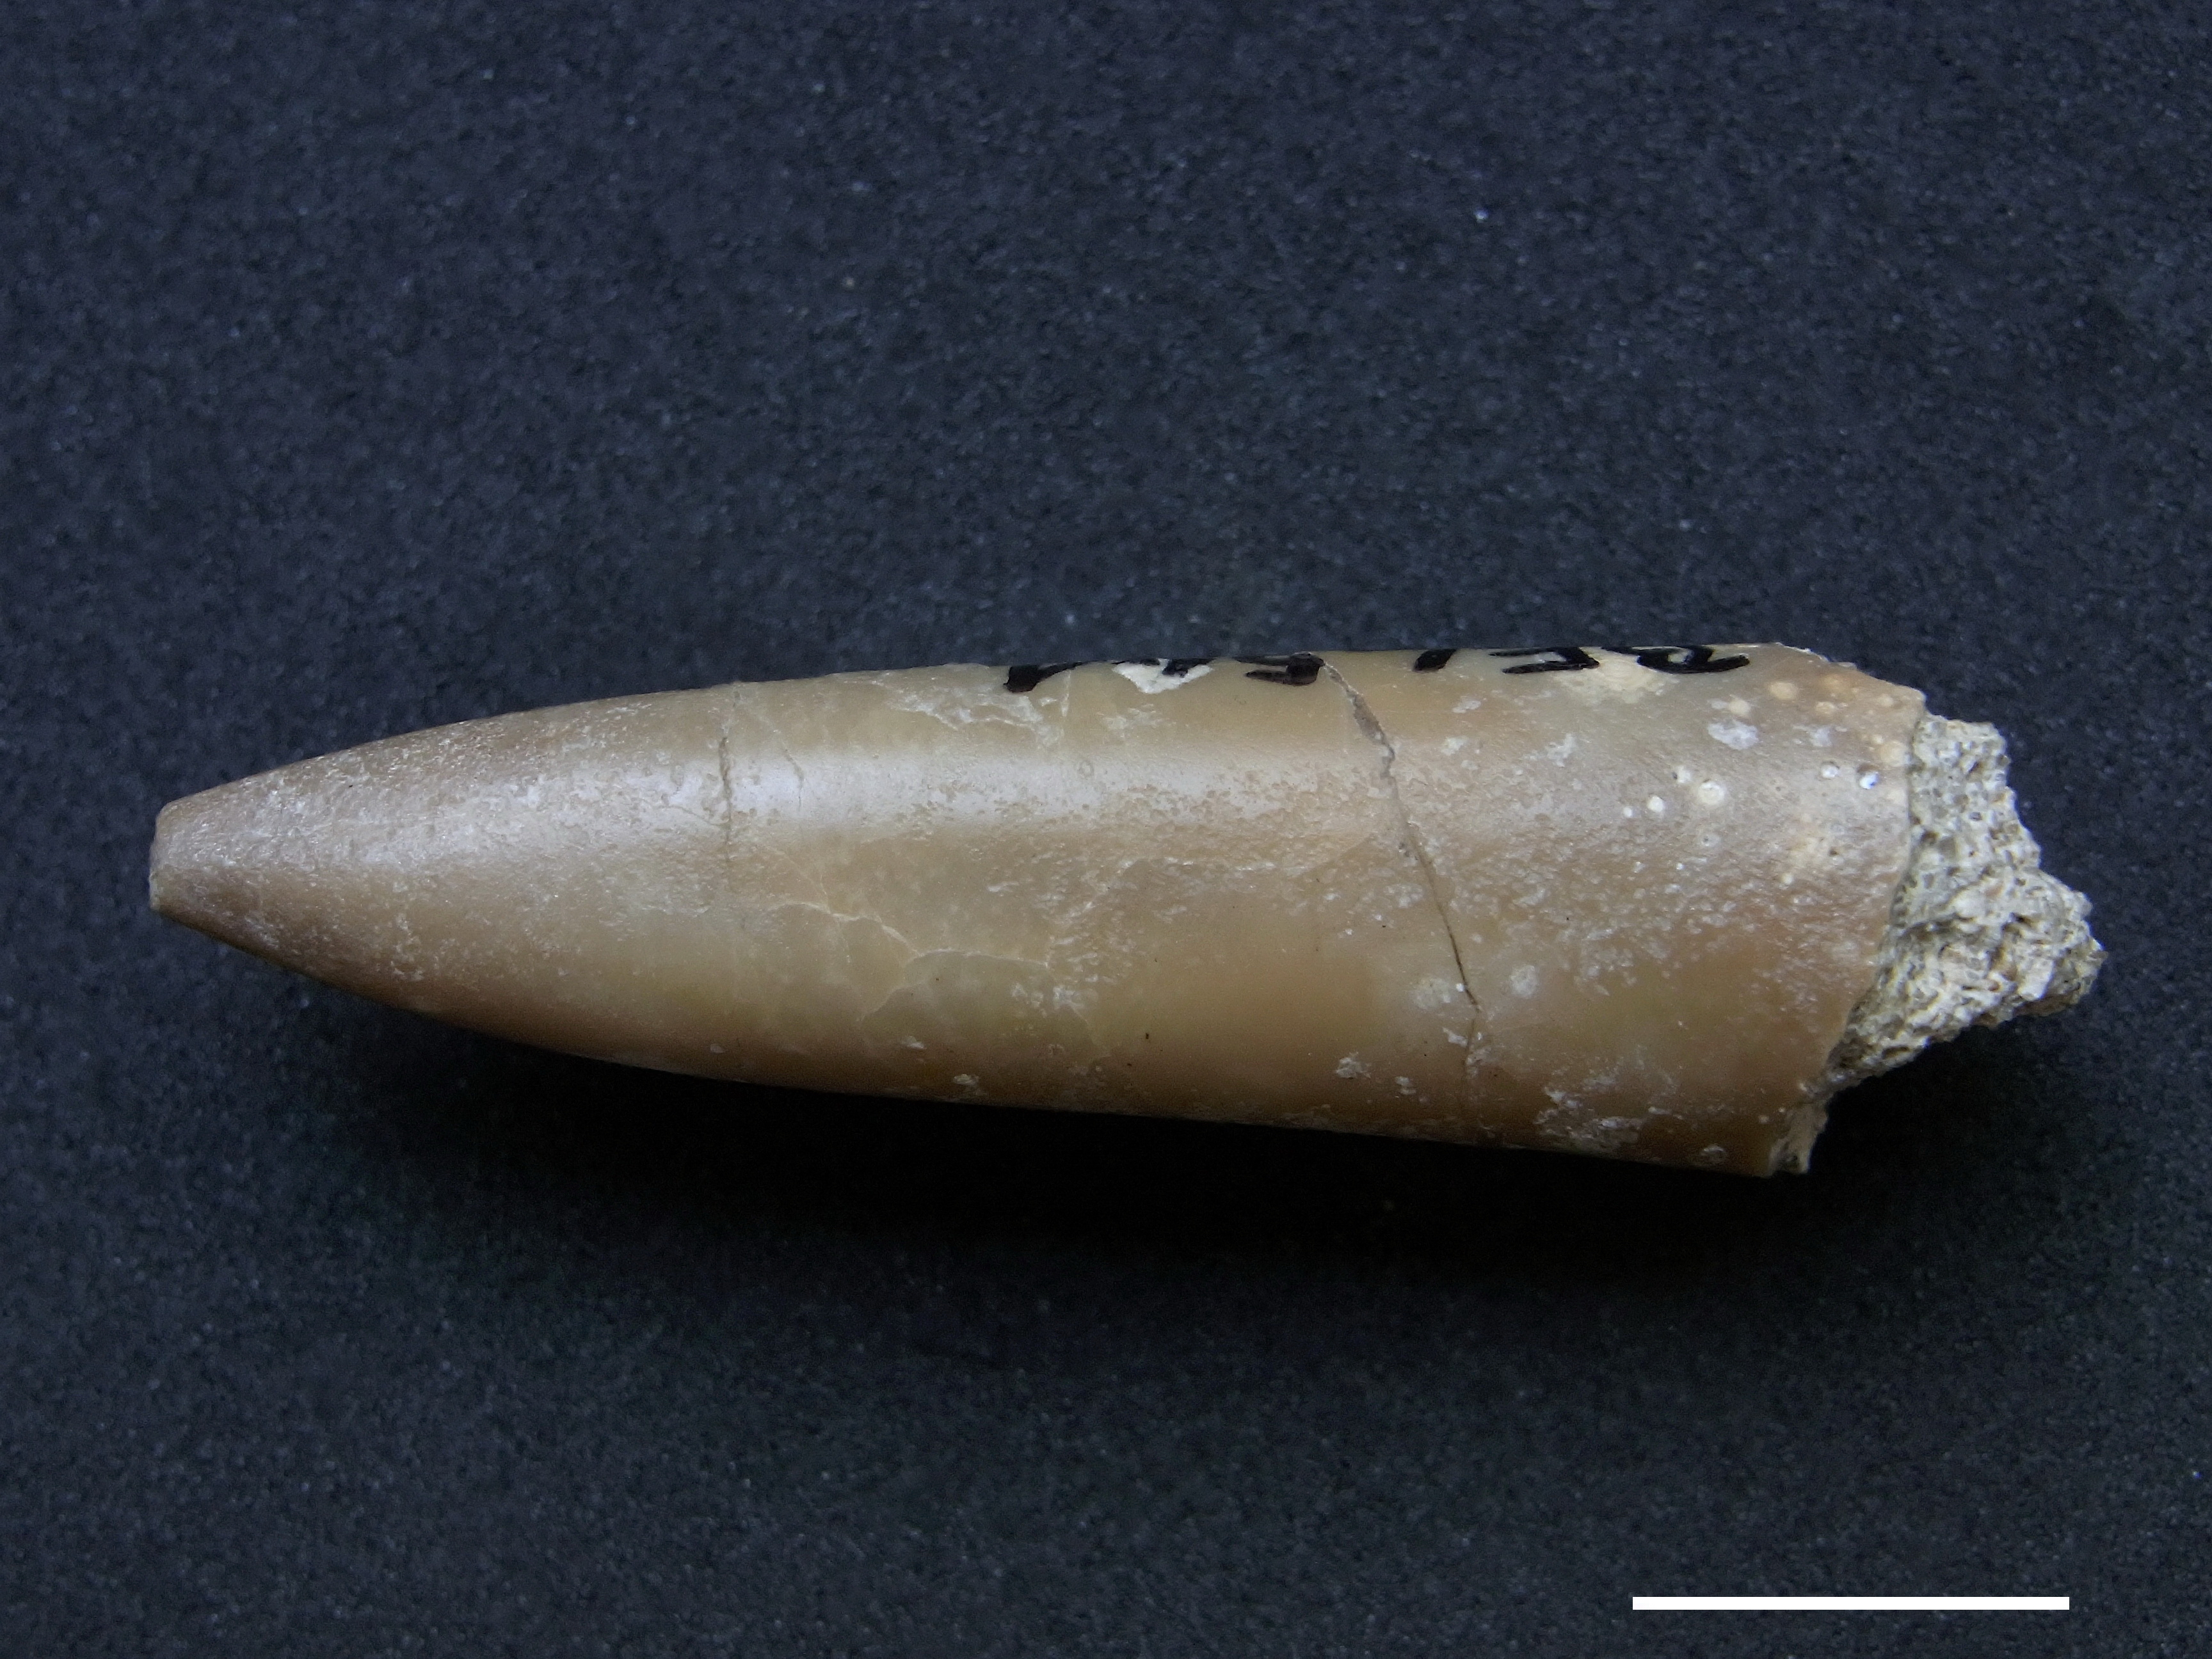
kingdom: Animalia
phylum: Mollusca
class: Cephalopoda
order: Belemnitida
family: Passaloteuthidae
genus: Parapassaloteuthis
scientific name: Parapassaloteuthis
